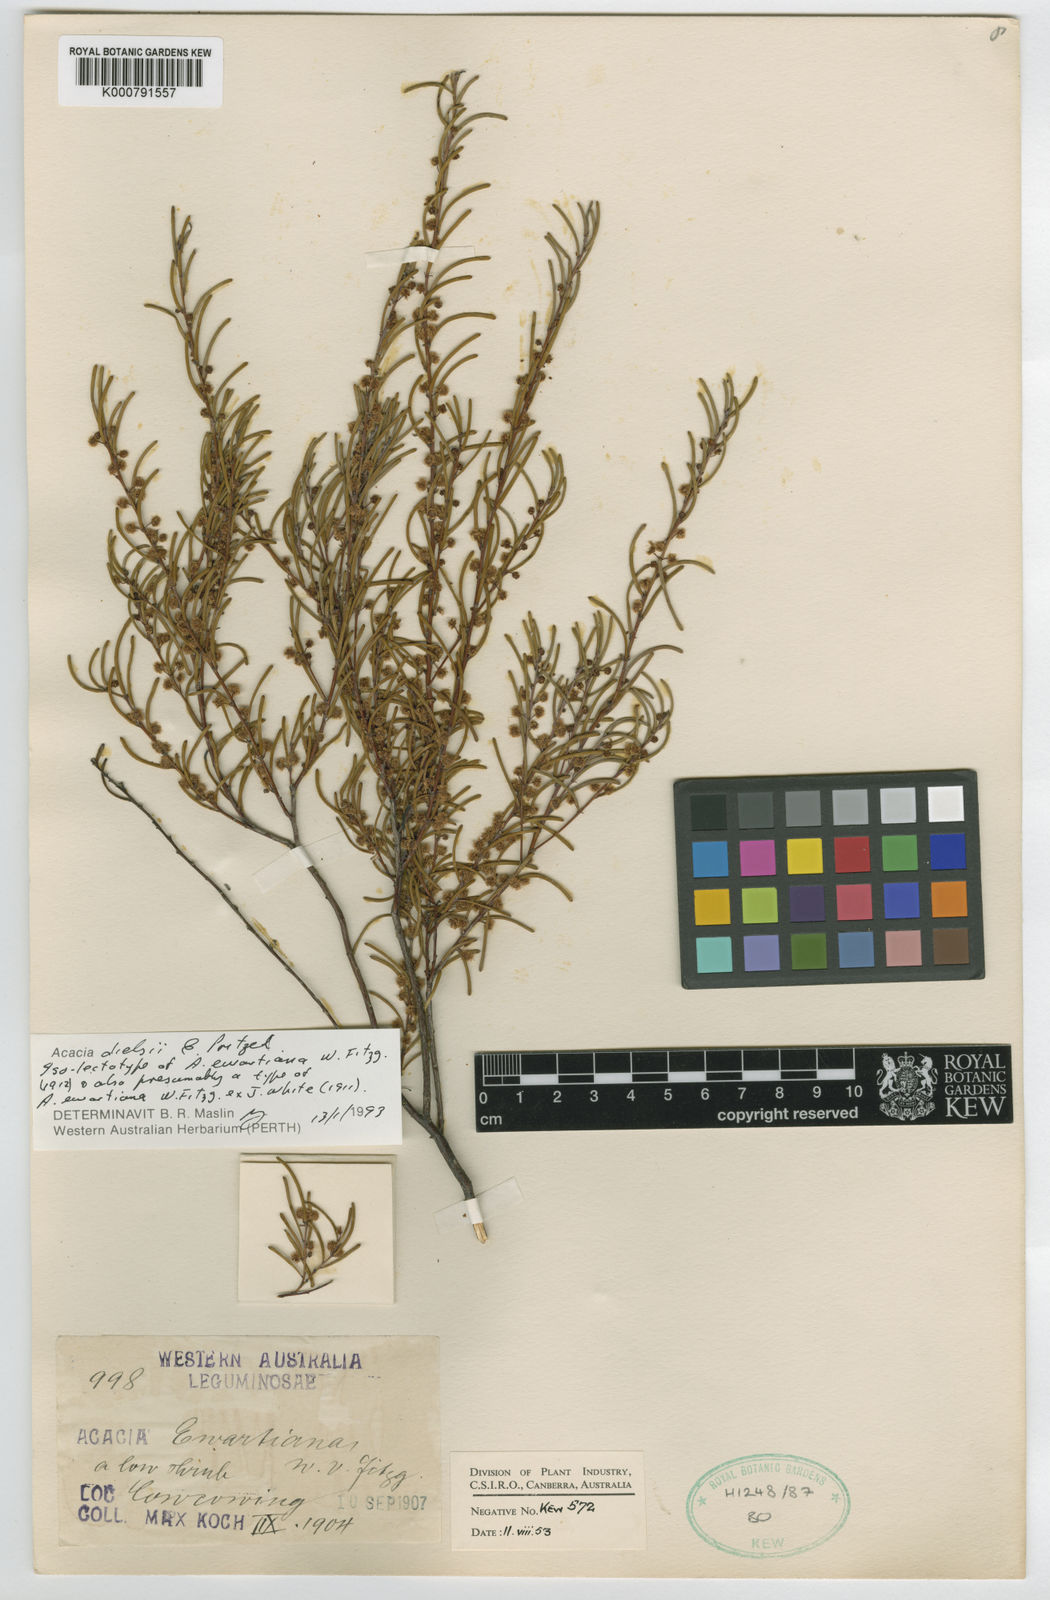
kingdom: Plantae
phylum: Tracheophyta
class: Magnoliopsida
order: Fabales
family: Fabaceae
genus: Acacia
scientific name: Acacia dielsii
